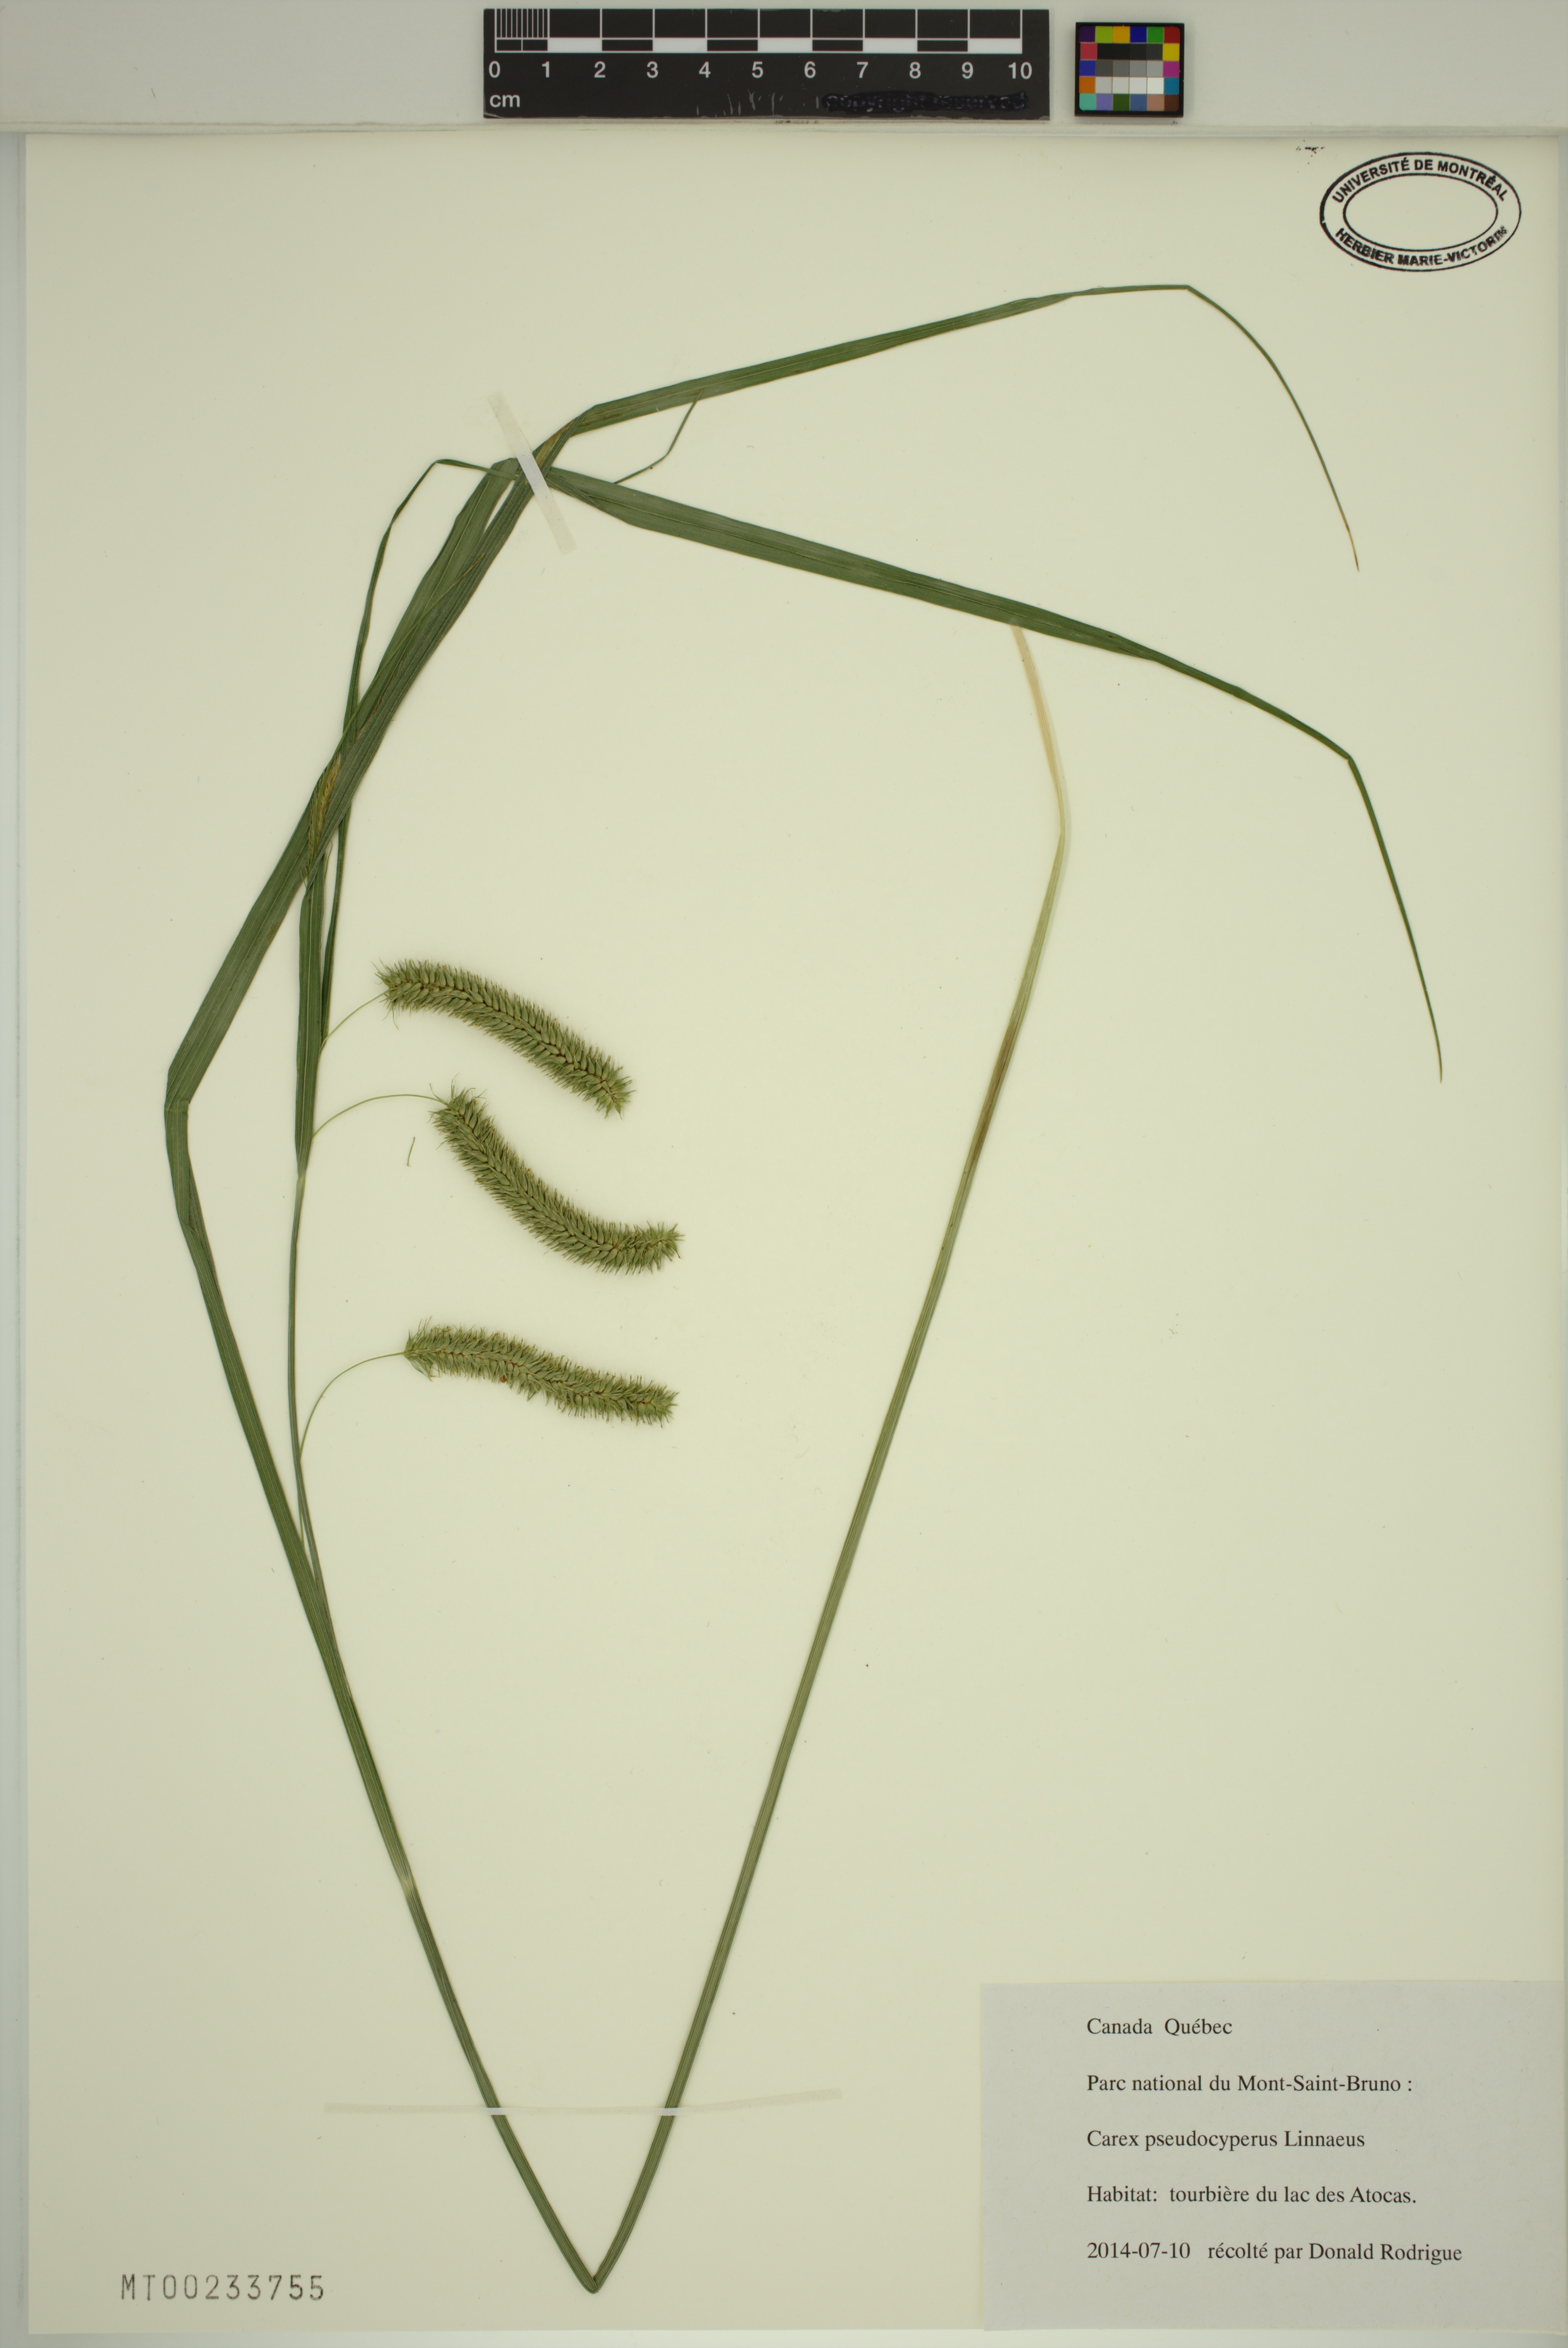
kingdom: Plantae
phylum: Tracheophyta
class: Liliopsida
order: Poales
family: Cyperaceae
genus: Carex
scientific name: Carex pseudocyperus
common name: Cyperus sedge
